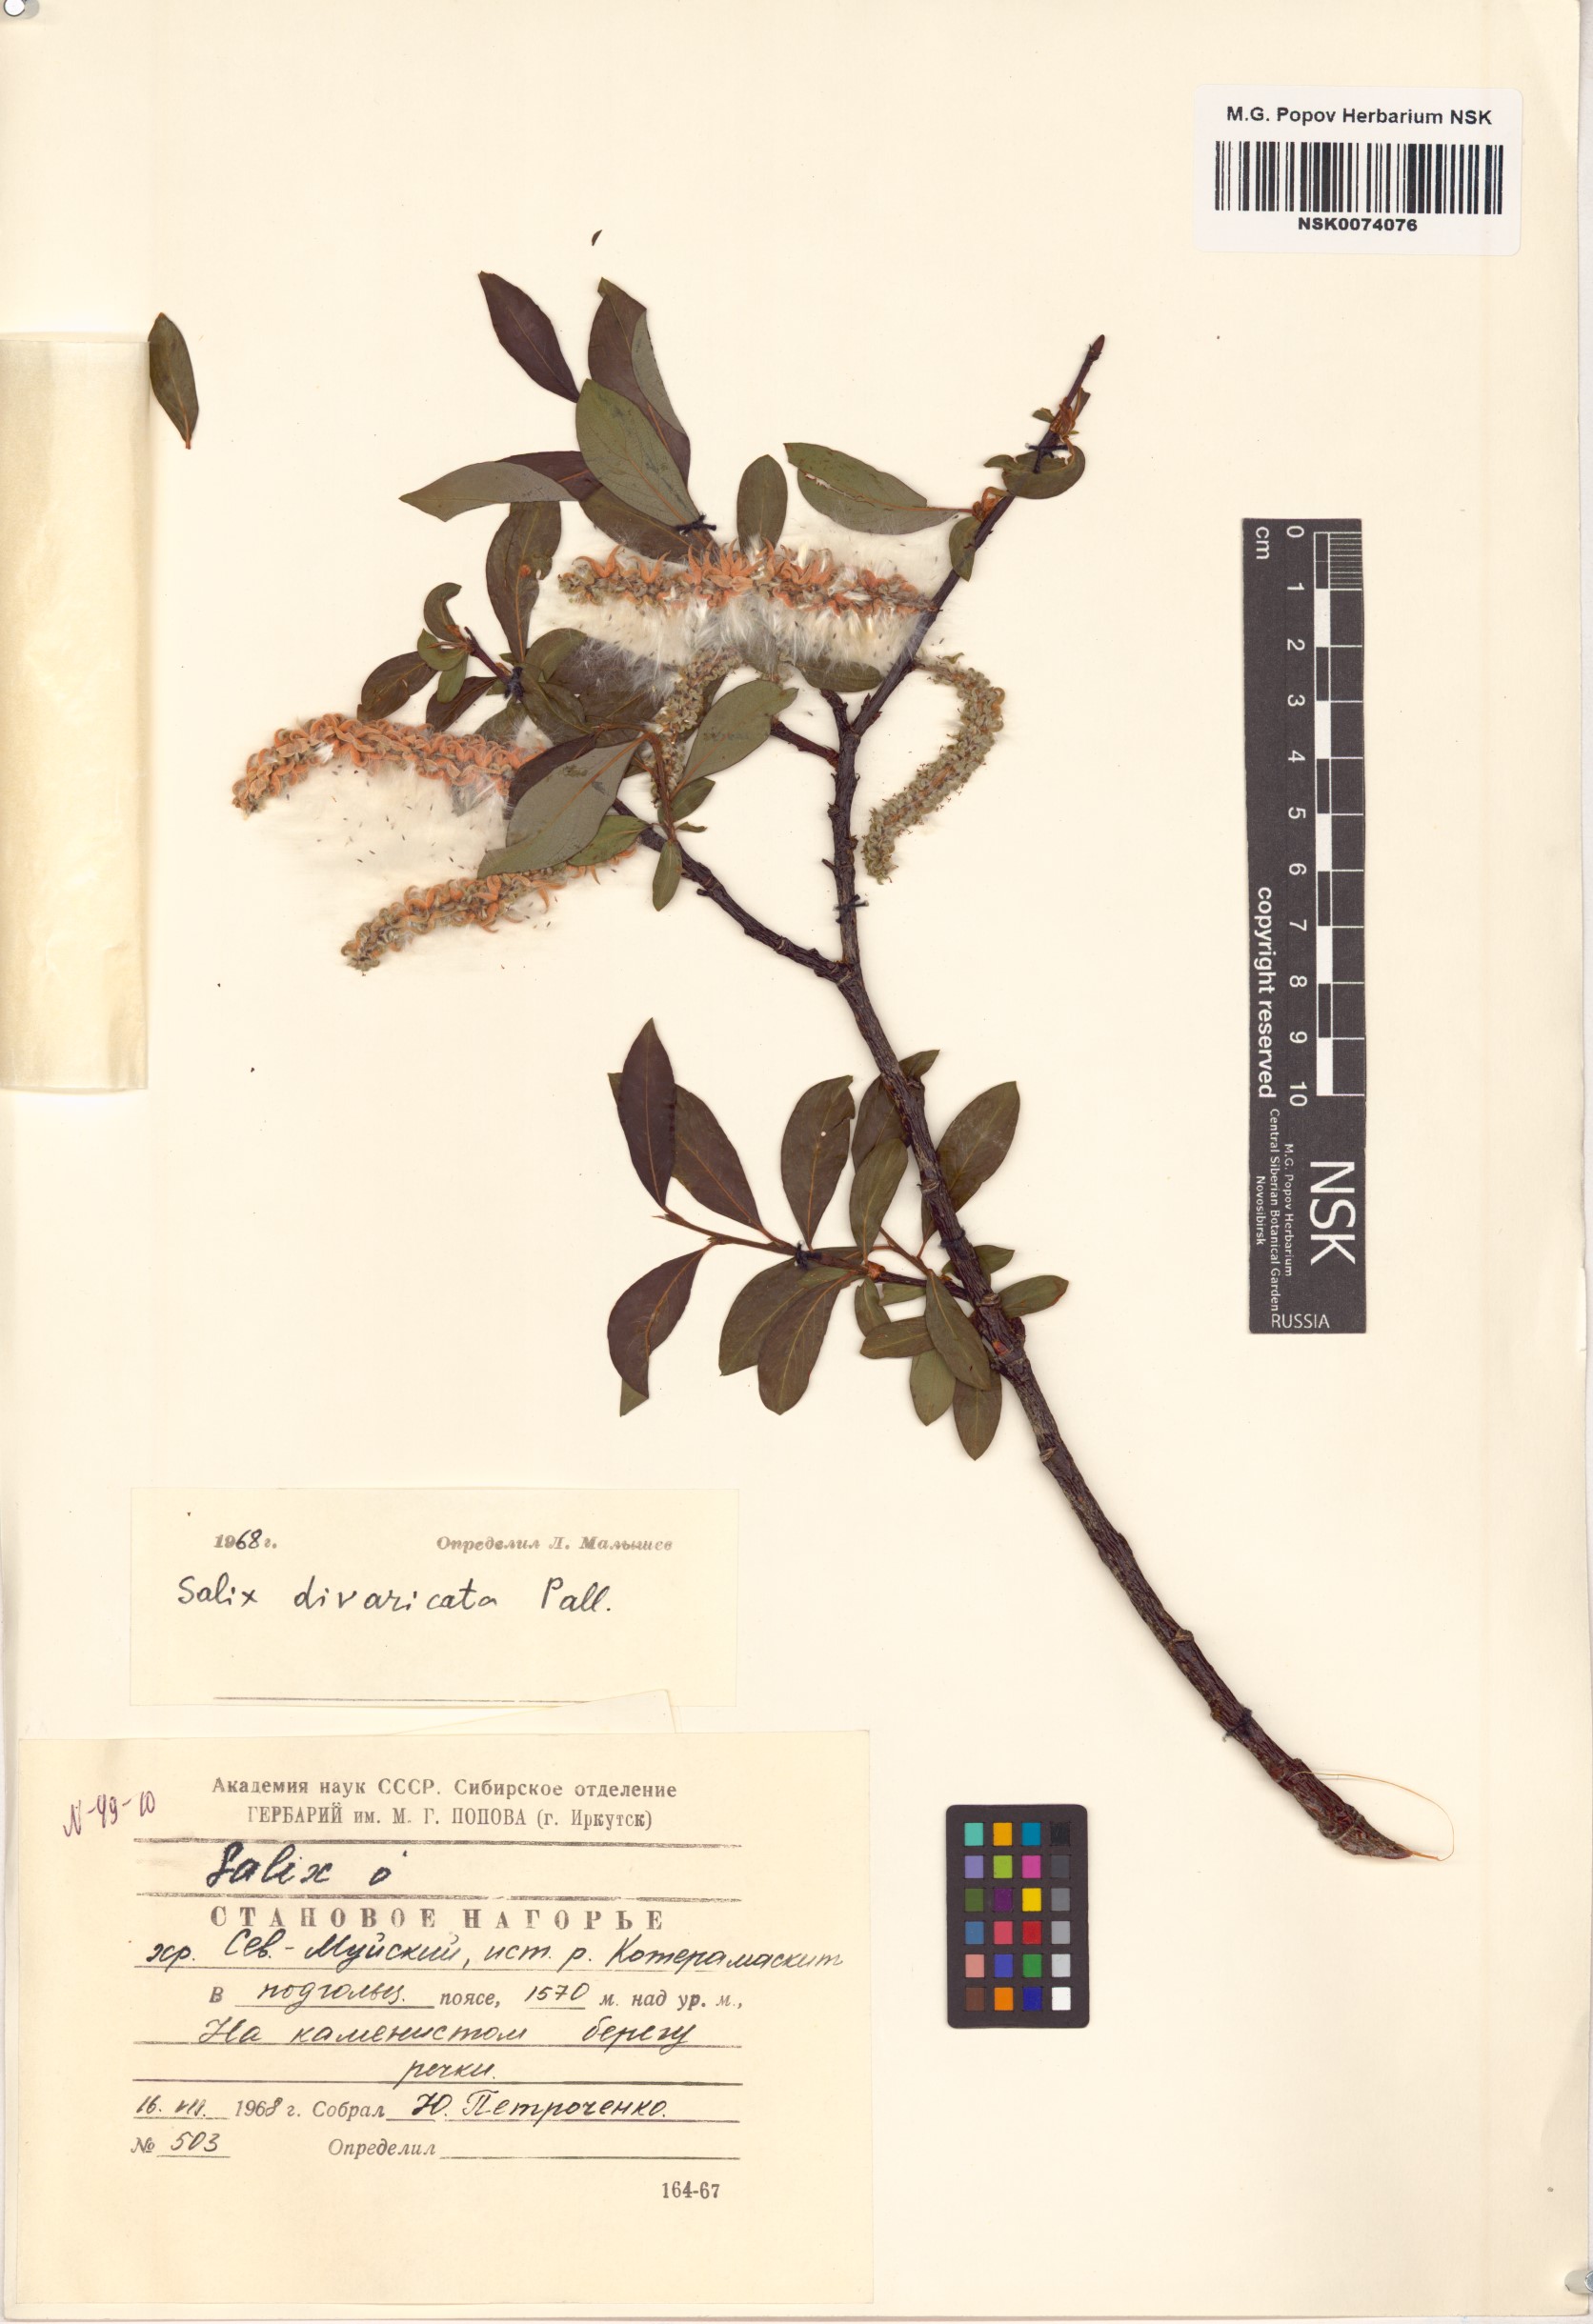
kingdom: Plantae
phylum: Tracheophyta
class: Magnoliopsida
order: Malpighiales
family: Salicaceae
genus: Salix
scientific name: Salix divaricata
